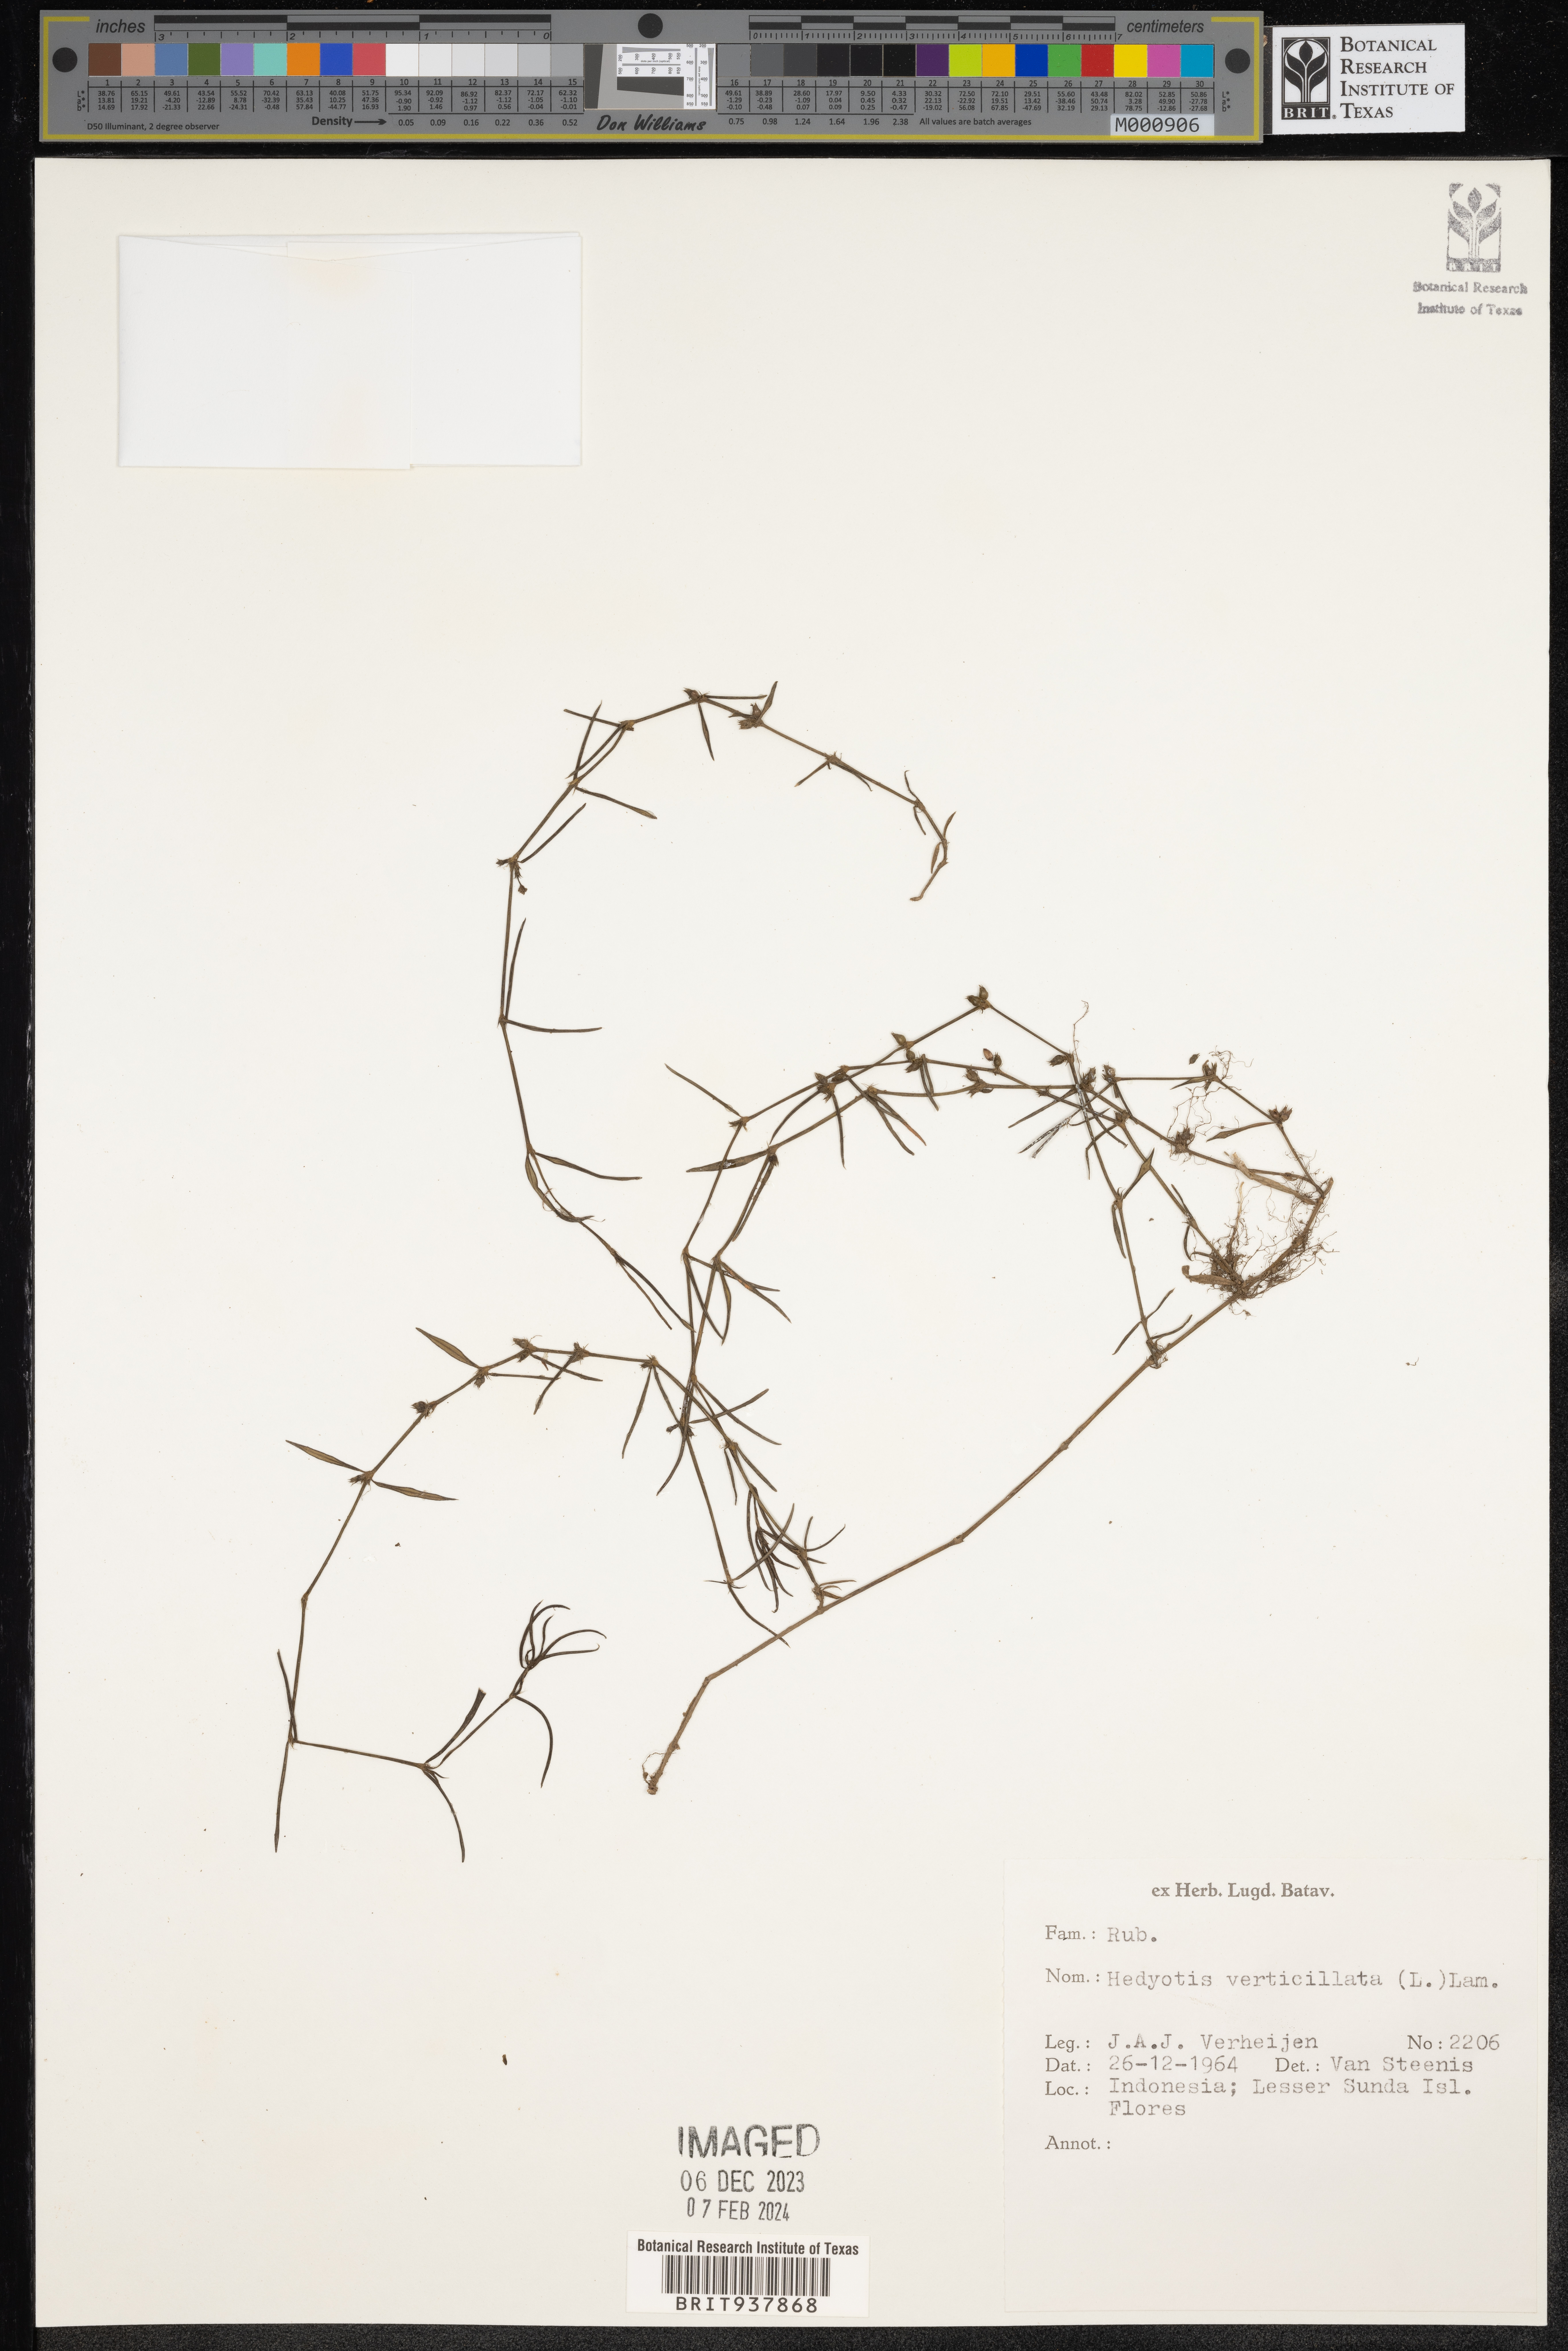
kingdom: Plantae
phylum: Tracheophyta
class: Magnoliopsida
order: Gentianales
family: Rubiaceae
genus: Hedyotis
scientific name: Hedyotis
